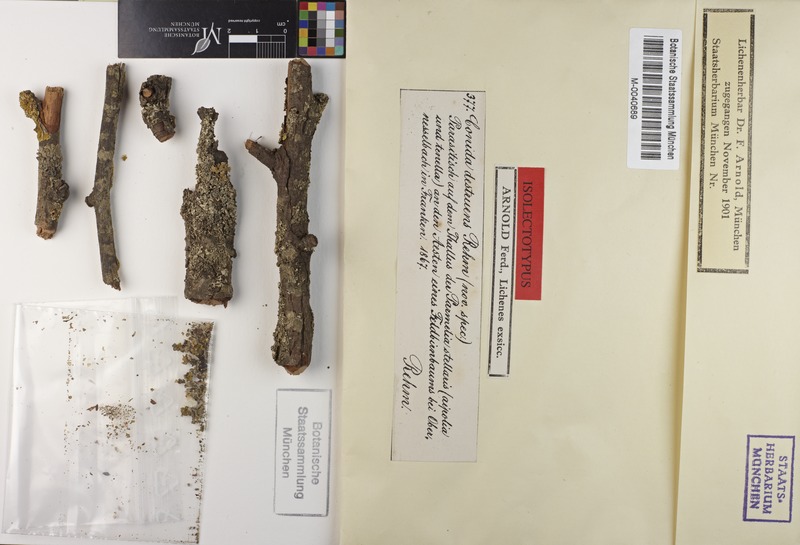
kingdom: Fungi
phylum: Ascomycota
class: Arthoniomycetes
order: Arthoniales
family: Arthoniaceae
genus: Arthonia
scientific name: Arthonia destruens
